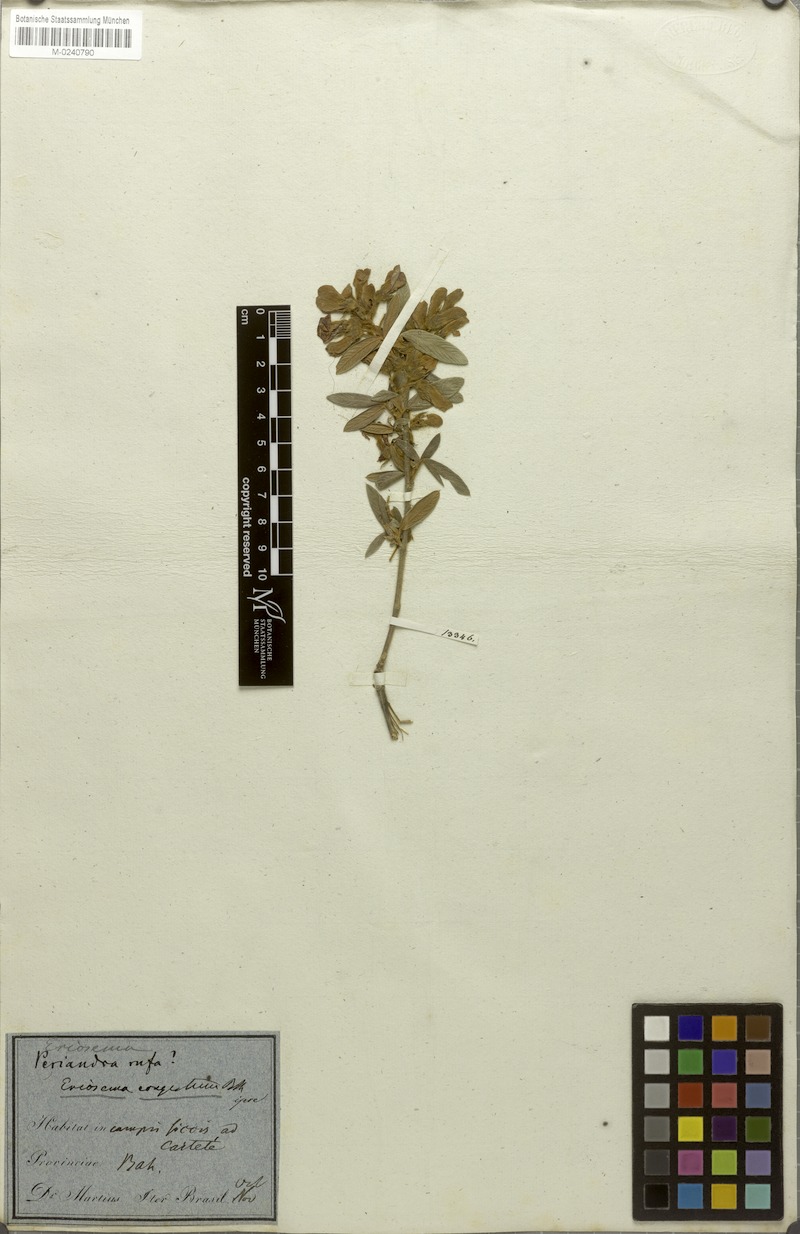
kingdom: Plantae
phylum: Tracheophyta
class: Magnoliopsida
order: Fabales
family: Fabaceae
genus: Eriosema
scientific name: Eriosema congestum
